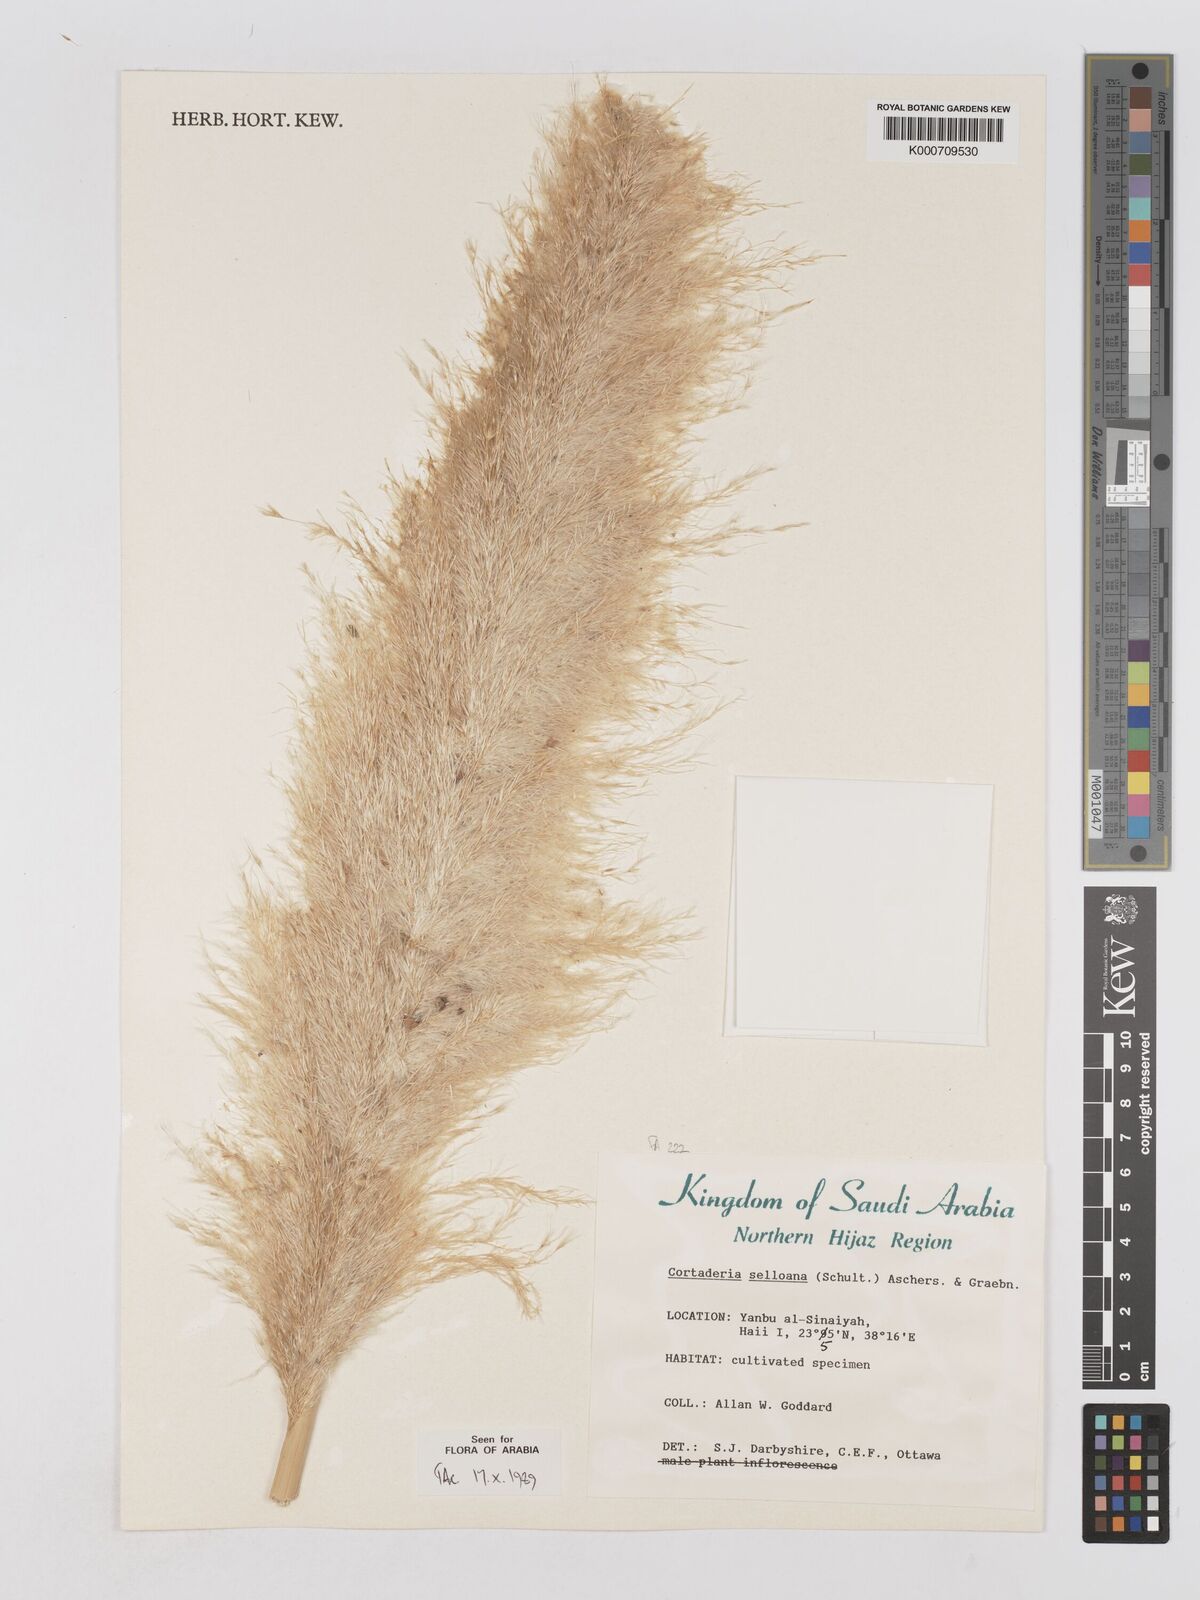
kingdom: Plantae
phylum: Tracheophyta
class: Liliopsida
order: Poales
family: Poaceae
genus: Cortaderia
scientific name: Cortaderia selloana
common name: Uruguayan pampas grass
